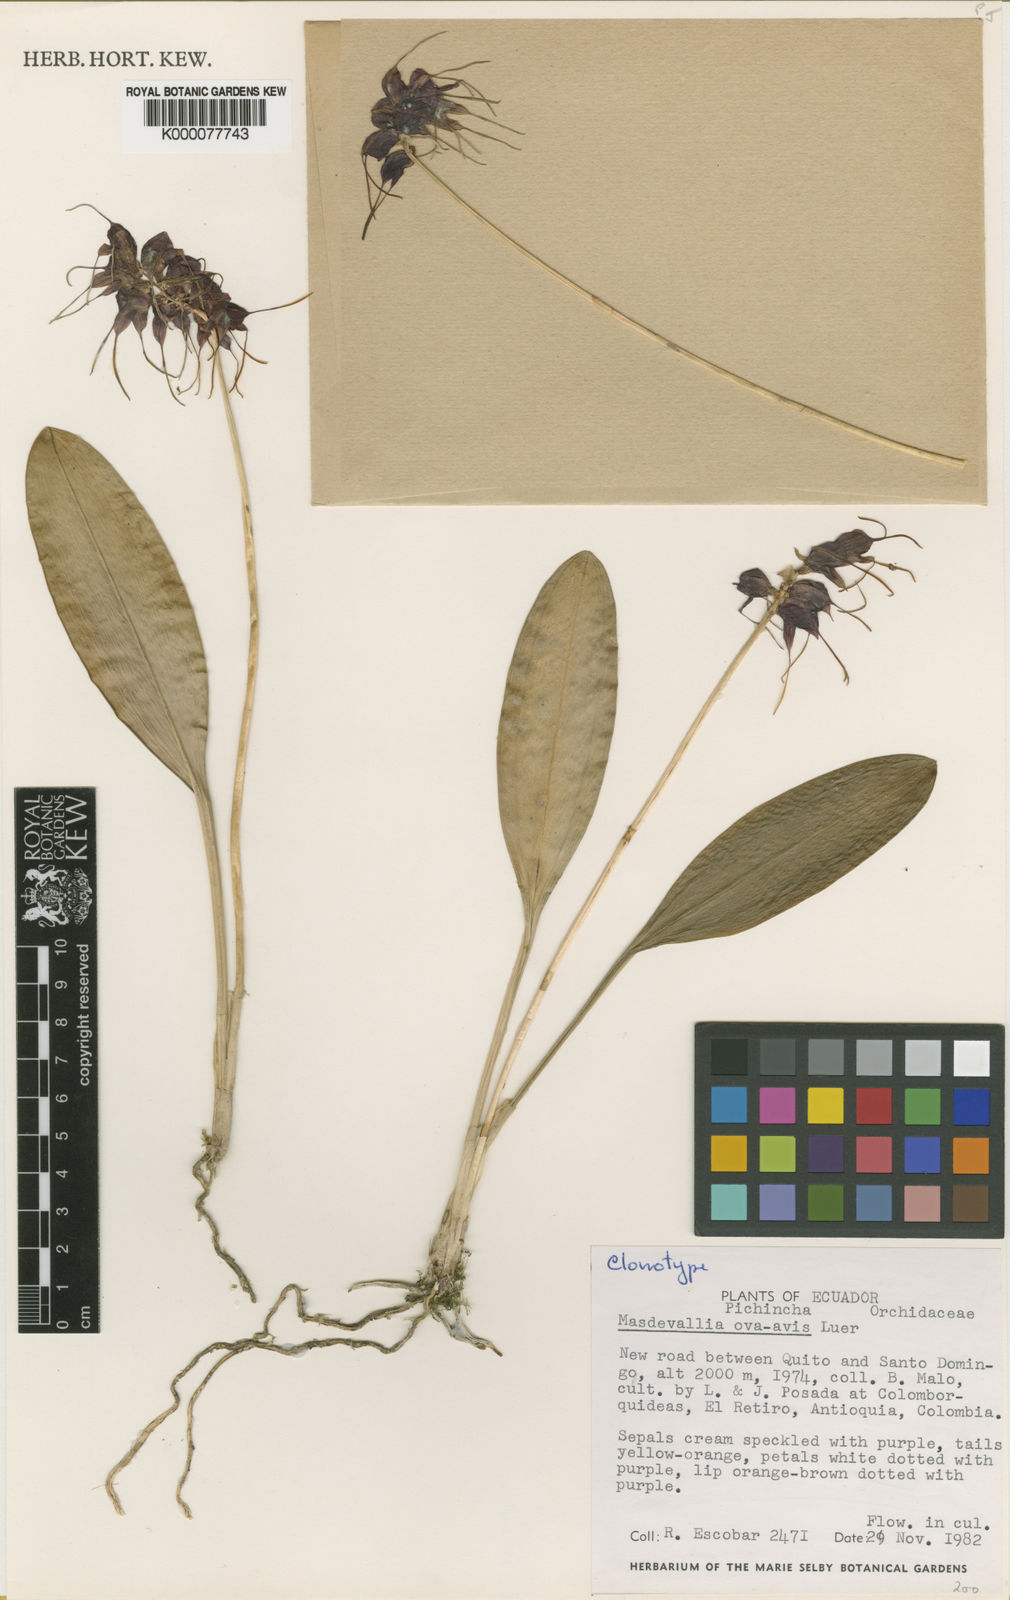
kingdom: Plantae
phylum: Tracheophyta
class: Liliopsida
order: Asparagales
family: Orchidaceae
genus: Masdevallia
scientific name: Masdevallia ova-avis
